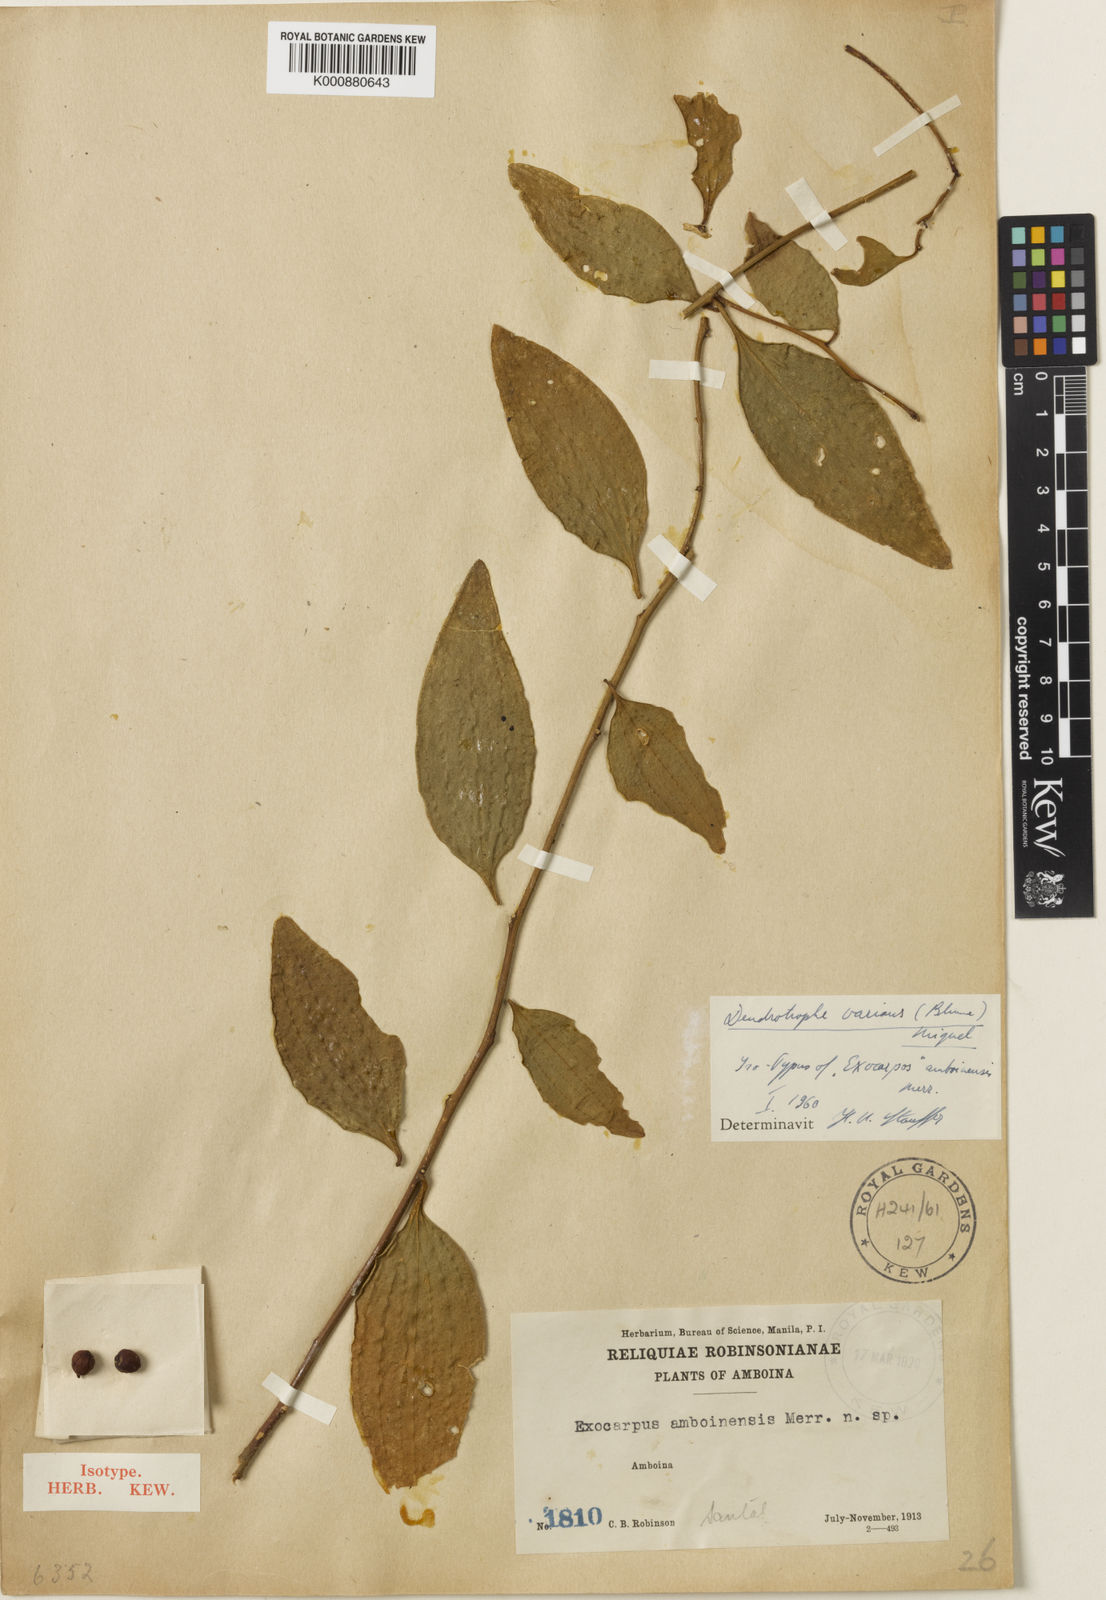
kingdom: Plantae
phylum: Tracheophyta
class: Magnoliopsida
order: Santalales
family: Amphorogynaceae
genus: Dendrotrophe
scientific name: Dendrotrophe varians
